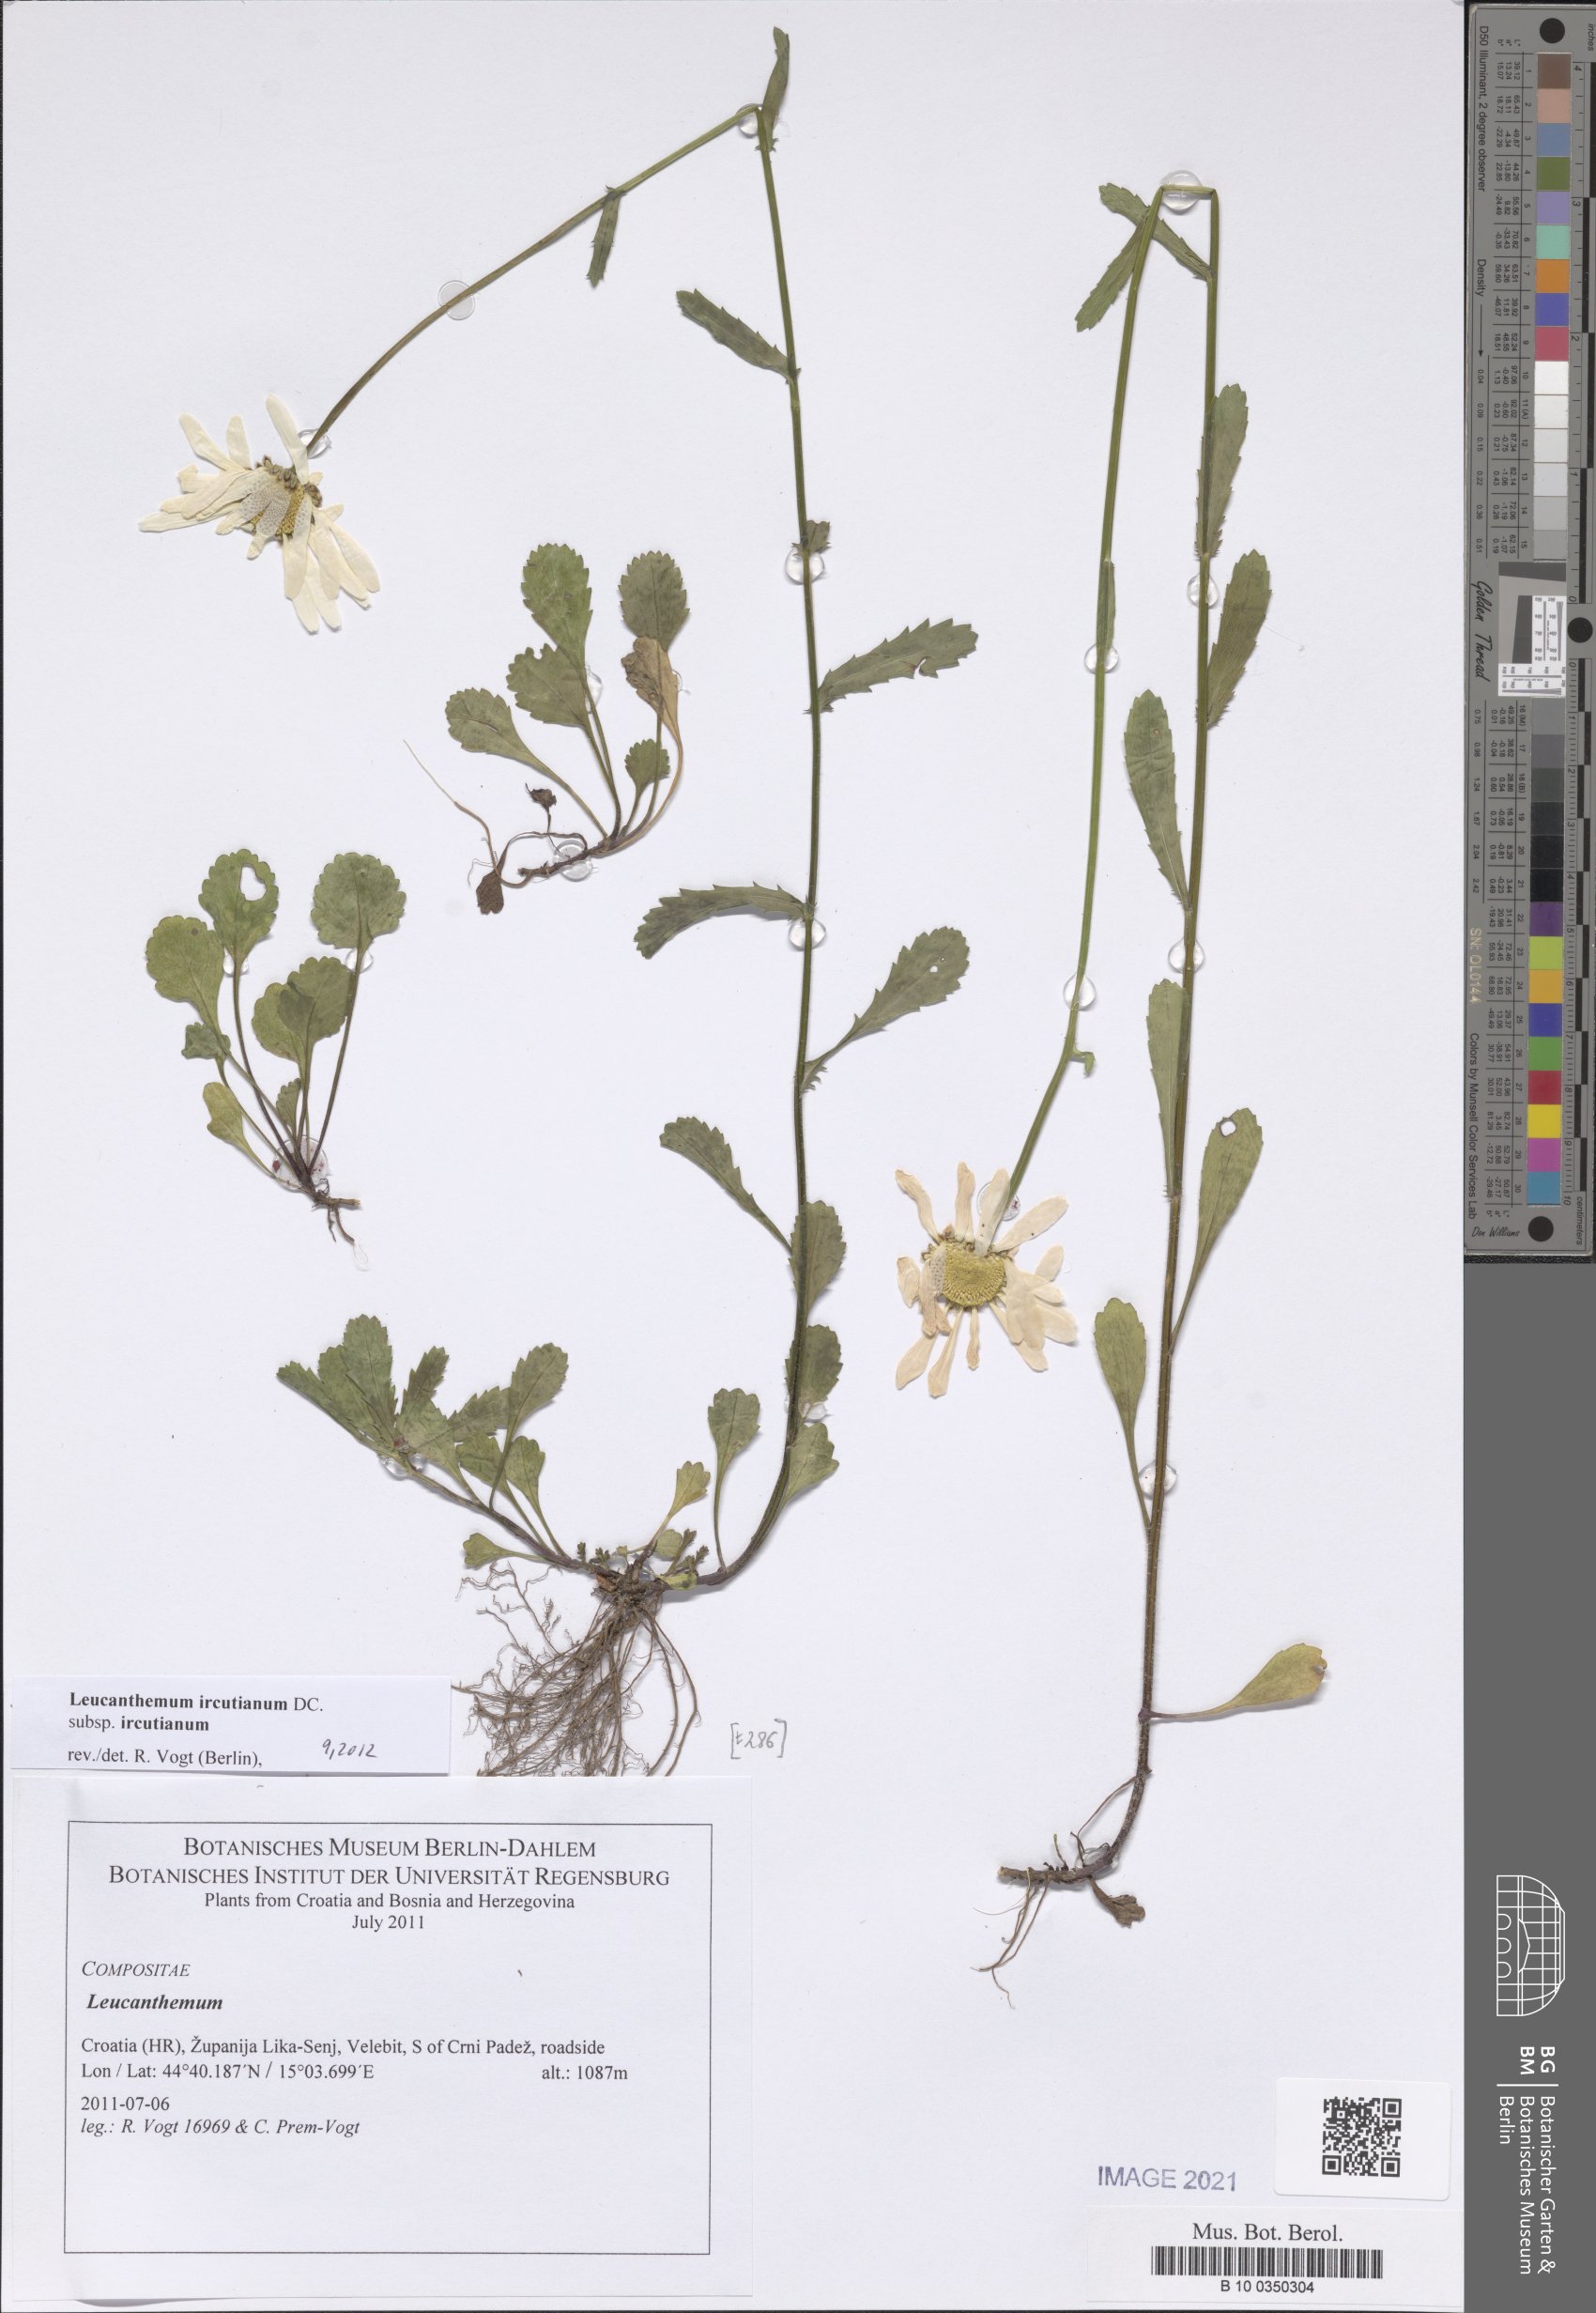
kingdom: Plantae
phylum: Tracheophyta
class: Magnoliopsida
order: Asterales
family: Asteraceae
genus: Leucanthemum
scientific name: Leucanthemum ircutianum
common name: Daisy
